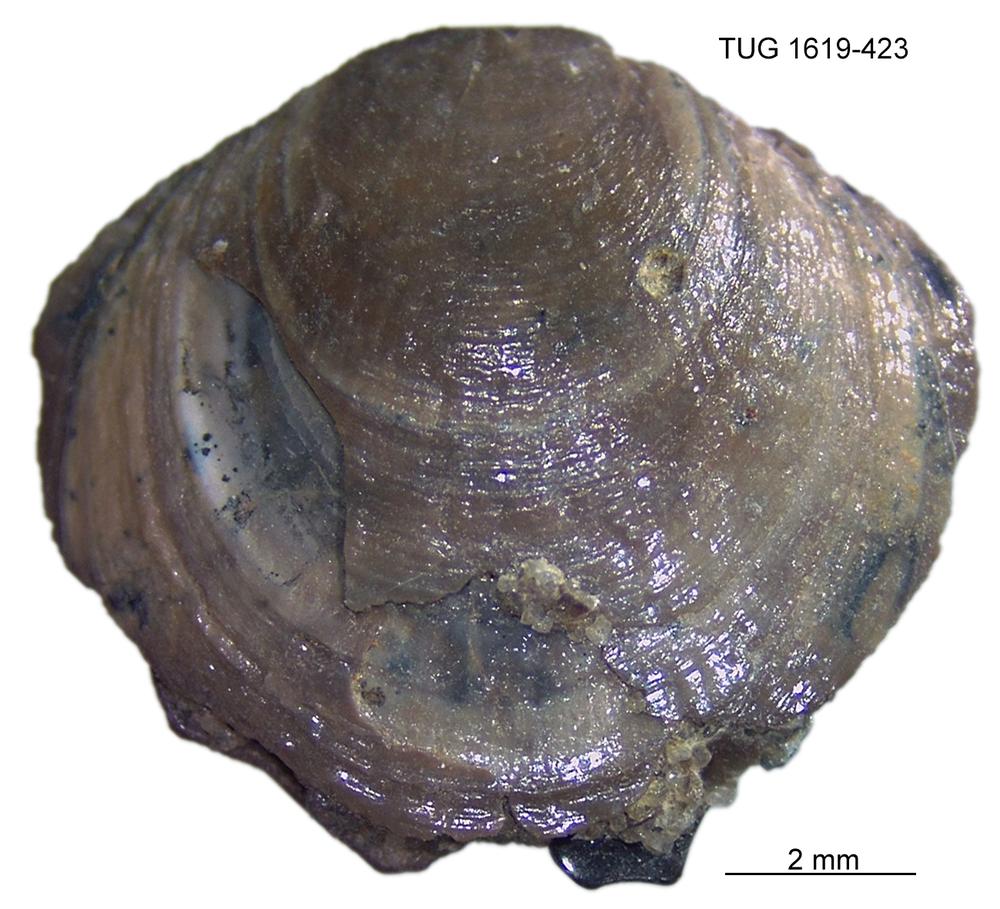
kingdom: Animalia
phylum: Porifera
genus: Ungula
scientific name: Ungula
